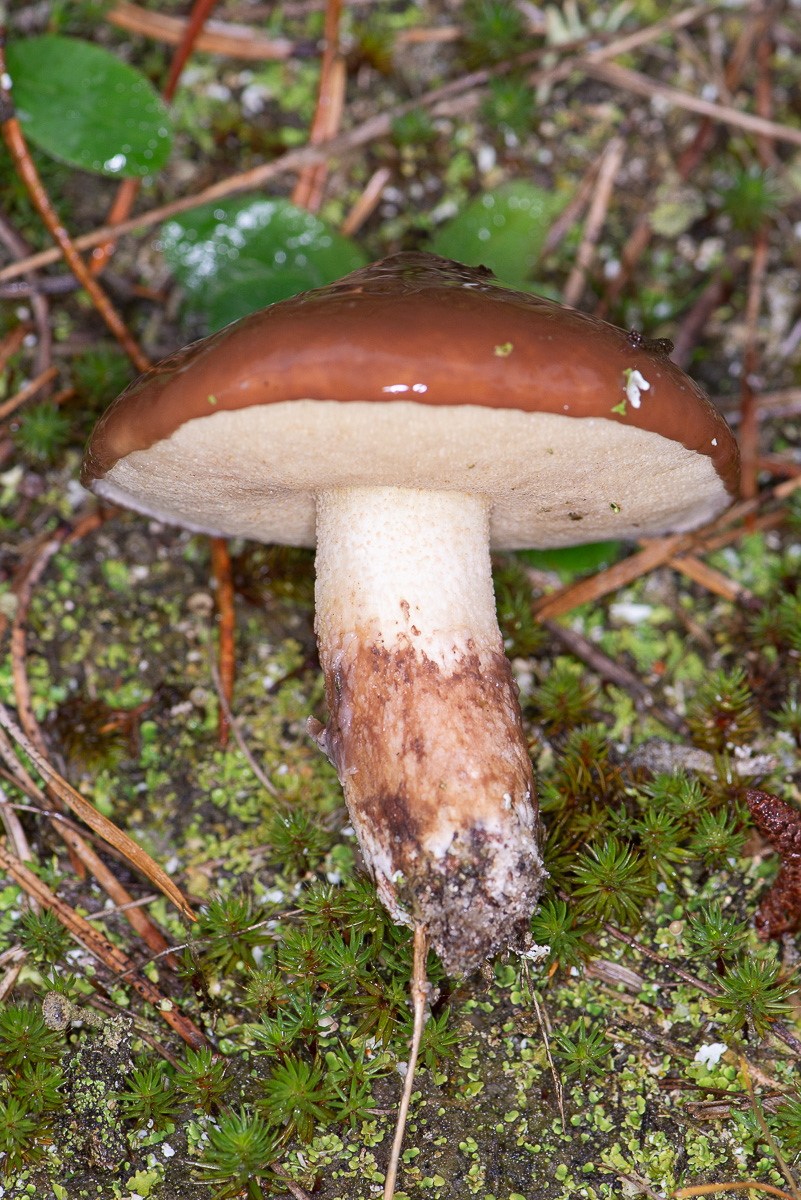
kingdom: Fungi
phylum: Basidiomycota
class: Agaricomycetes
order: Boletales
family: Suillaceae
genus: Suillus
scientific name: Suillus luteus
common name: brungul slimrørhat
